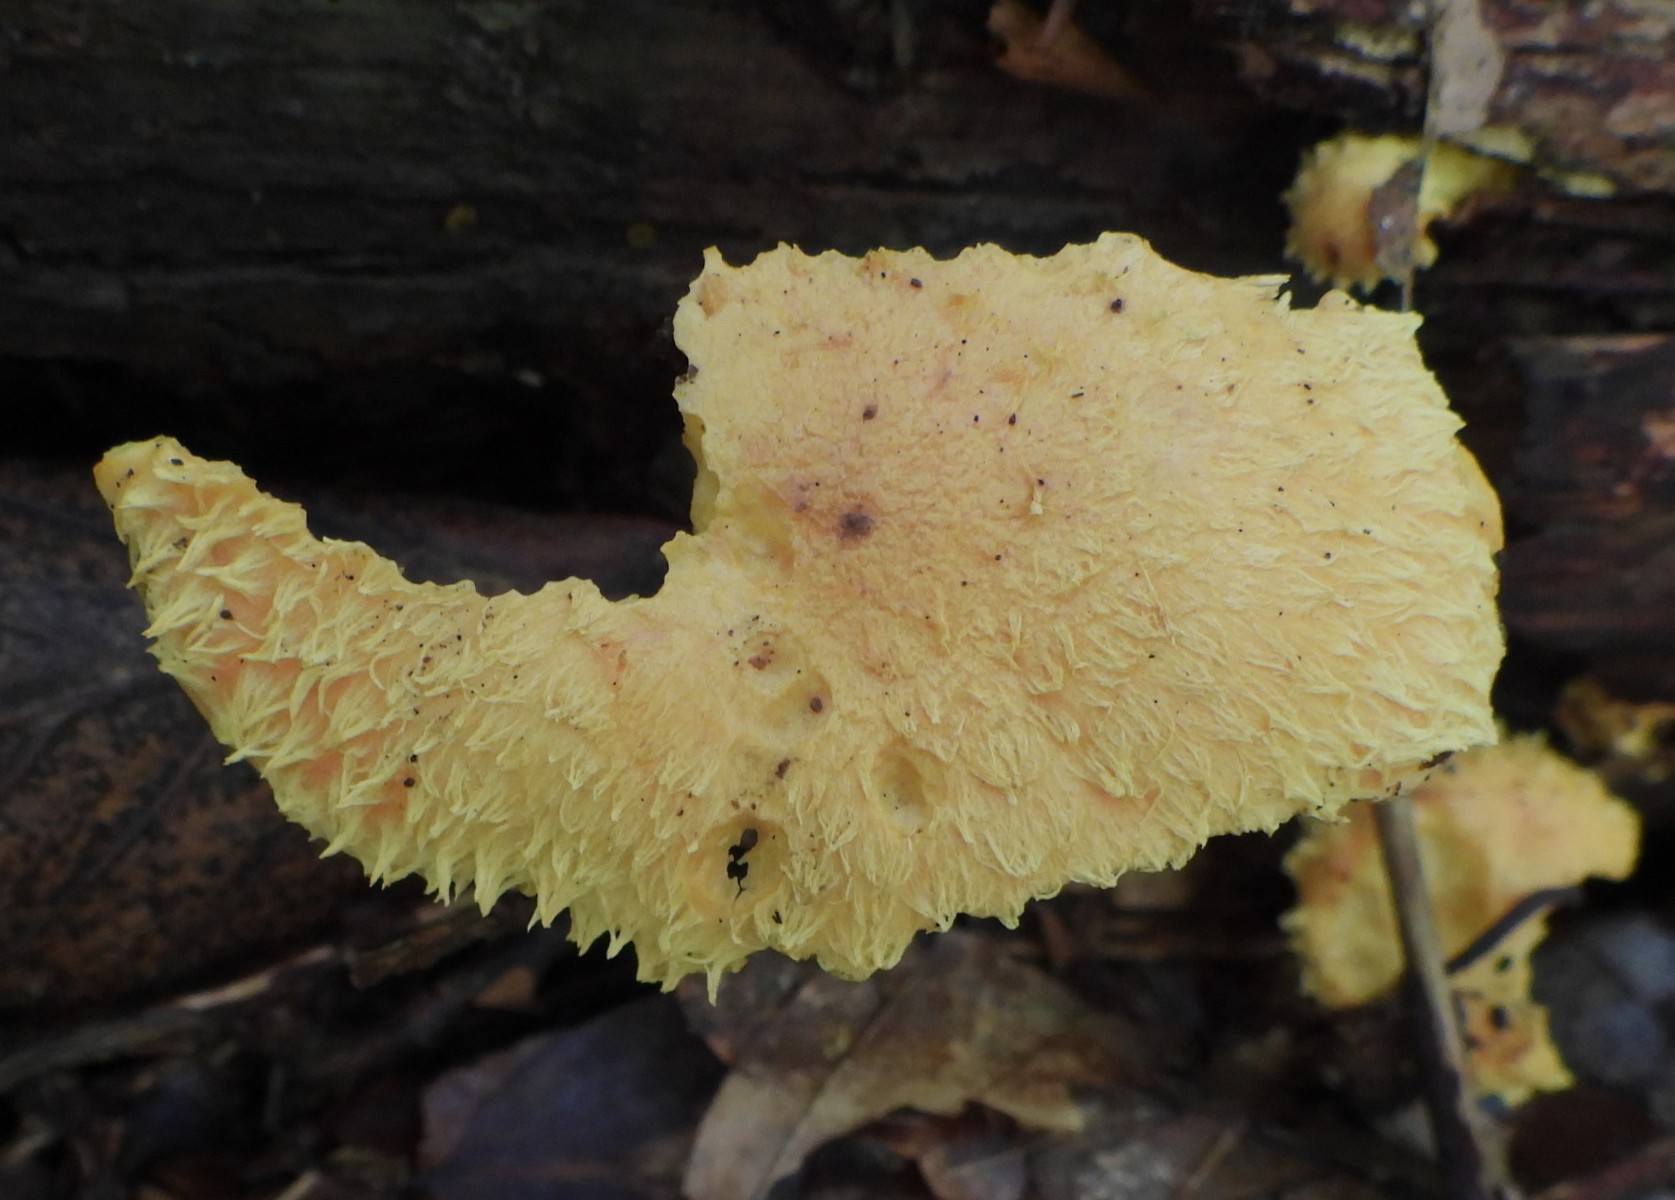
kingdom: Fungi
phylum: Basidiomycota
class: Agaricomycetes
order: Agaricales
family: Strophariaceae
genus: Pholiota
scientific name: Pholiota flammans
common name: flamme-skælhat
